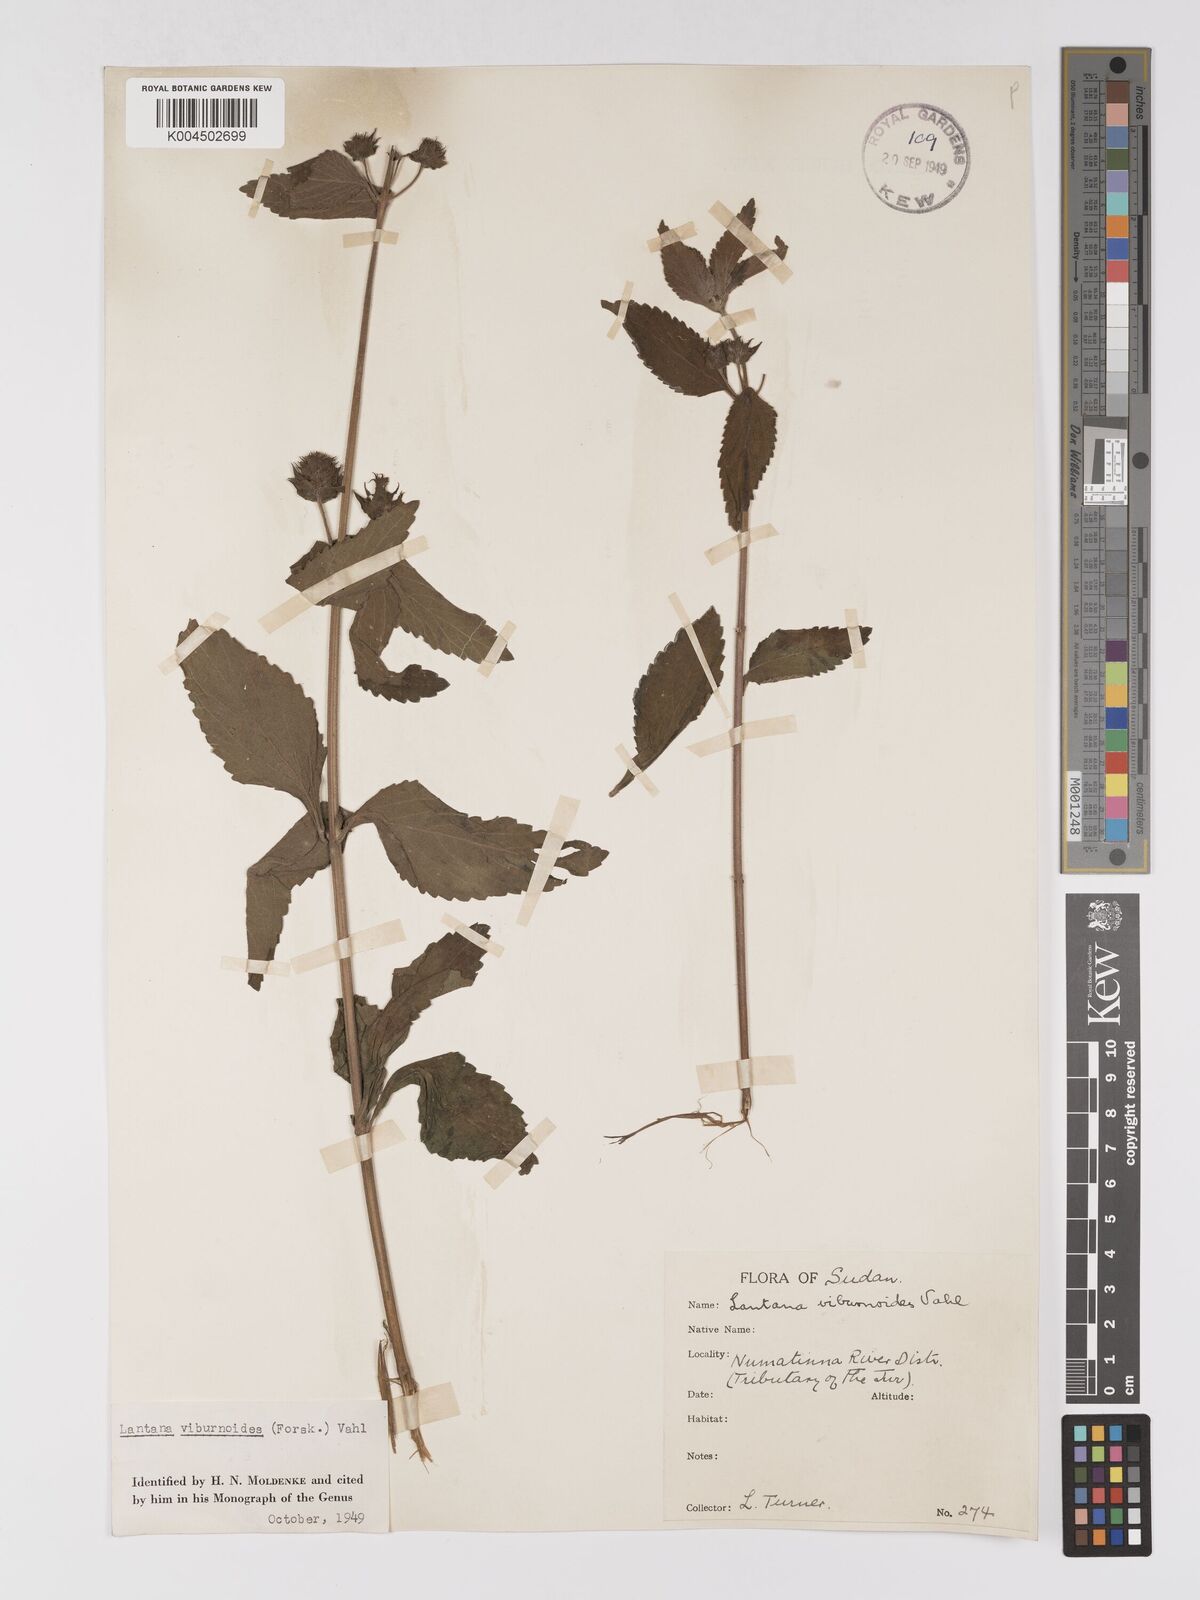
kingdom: Plantae
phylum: Tracheophyta
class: Magnoliopsida
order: Lamiales
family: Verbenaceae
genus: Lantana
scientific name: Lantana ukambensis
